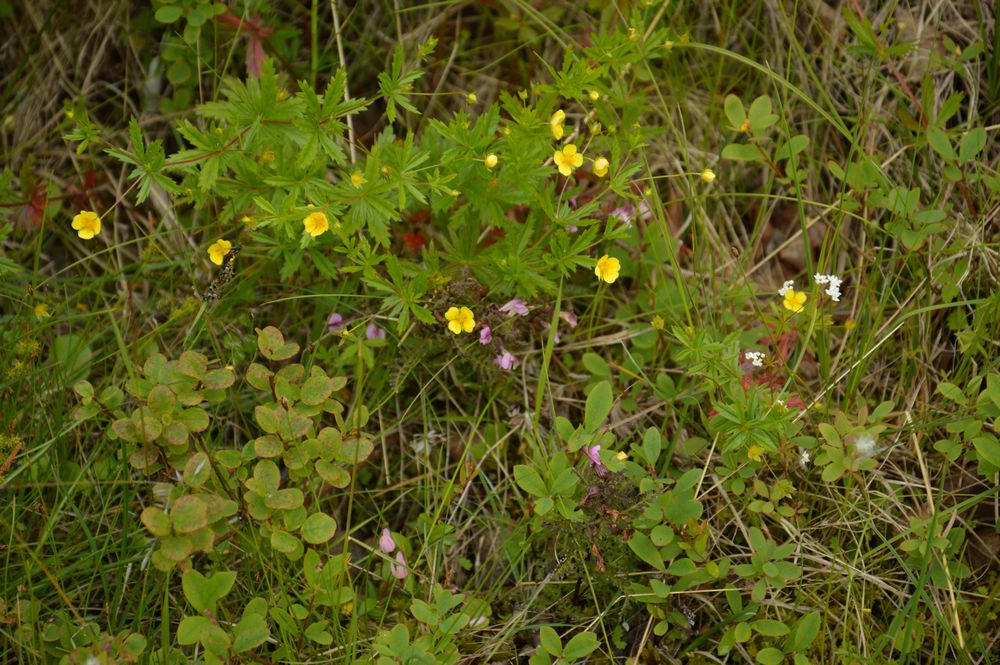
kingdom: Plantae
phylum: Tracheophyta
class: Magnoliopsida
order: Rosales
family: Rosaceae
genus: Potentilla
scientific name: Potentilla erecta
